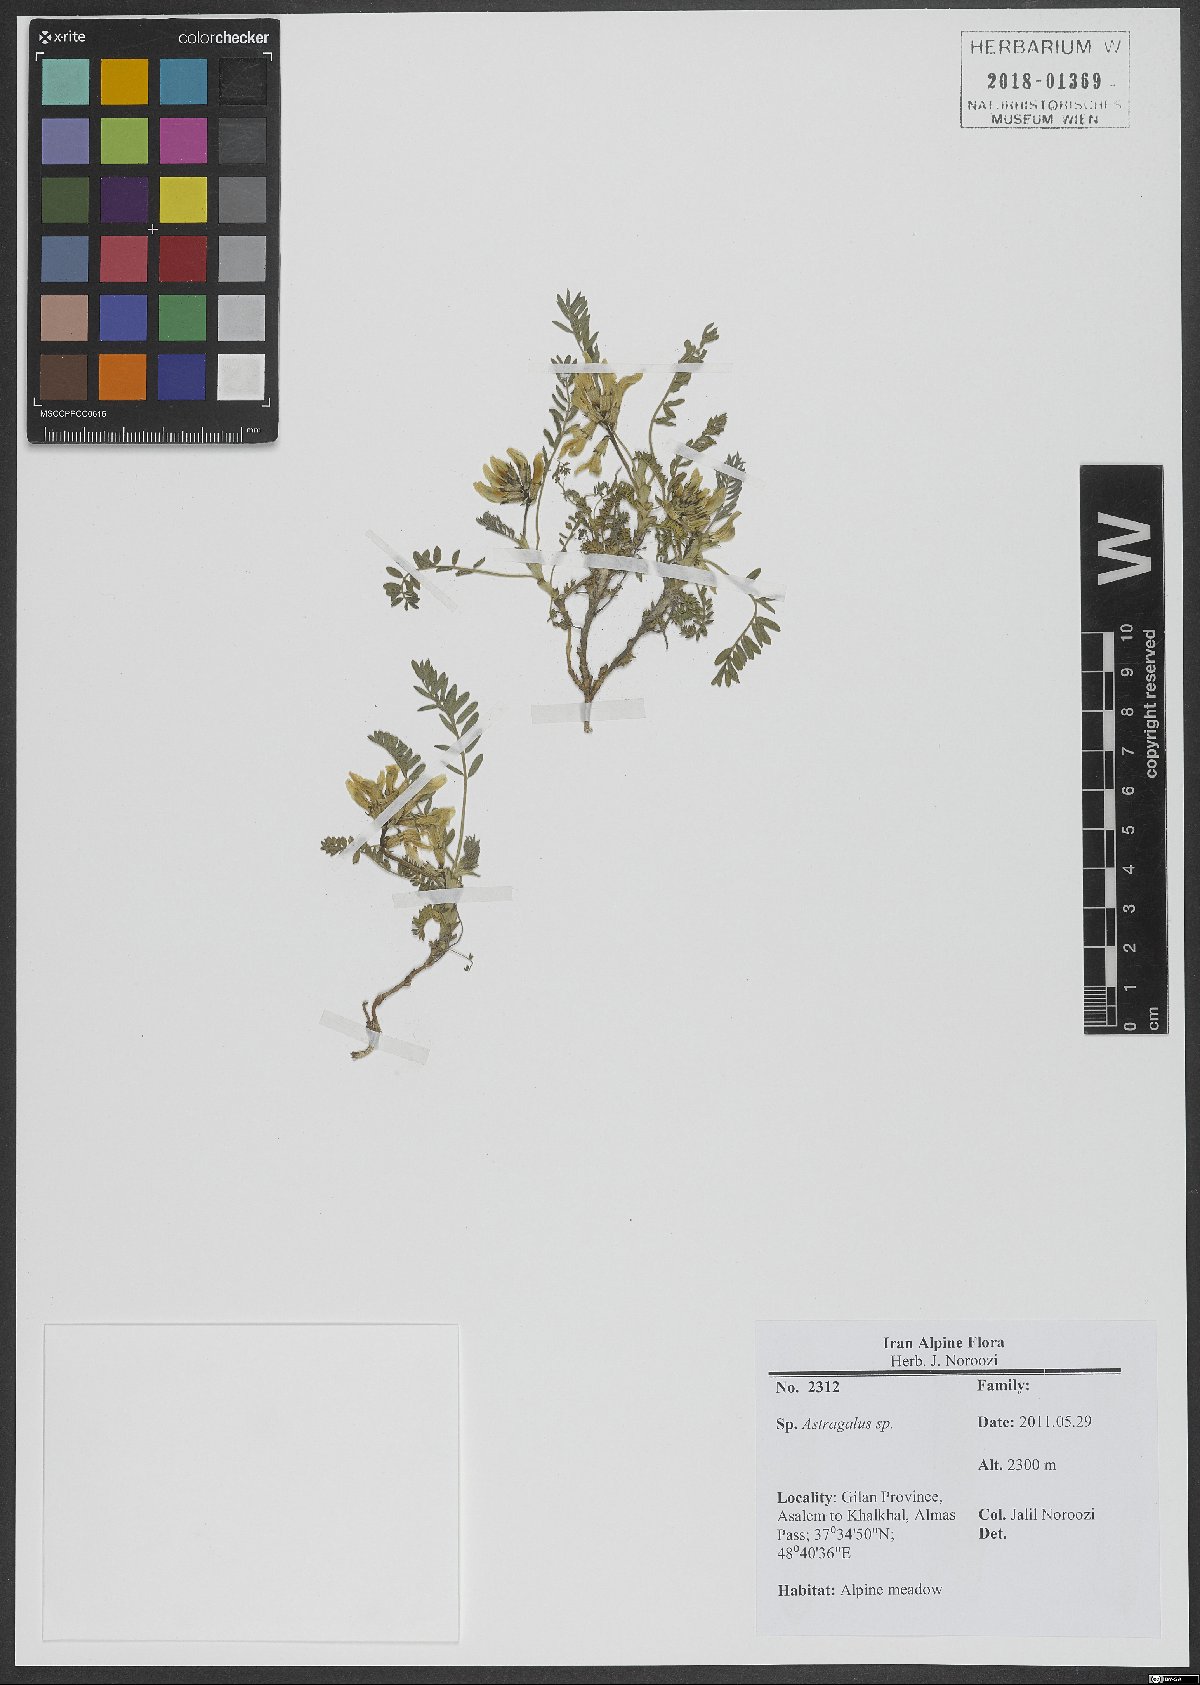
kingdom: Plantae
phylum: Tracheophyta
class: Magnoliopsida
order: Fabales
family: Fabaceae
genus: Astragalus
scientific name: Astragalus
